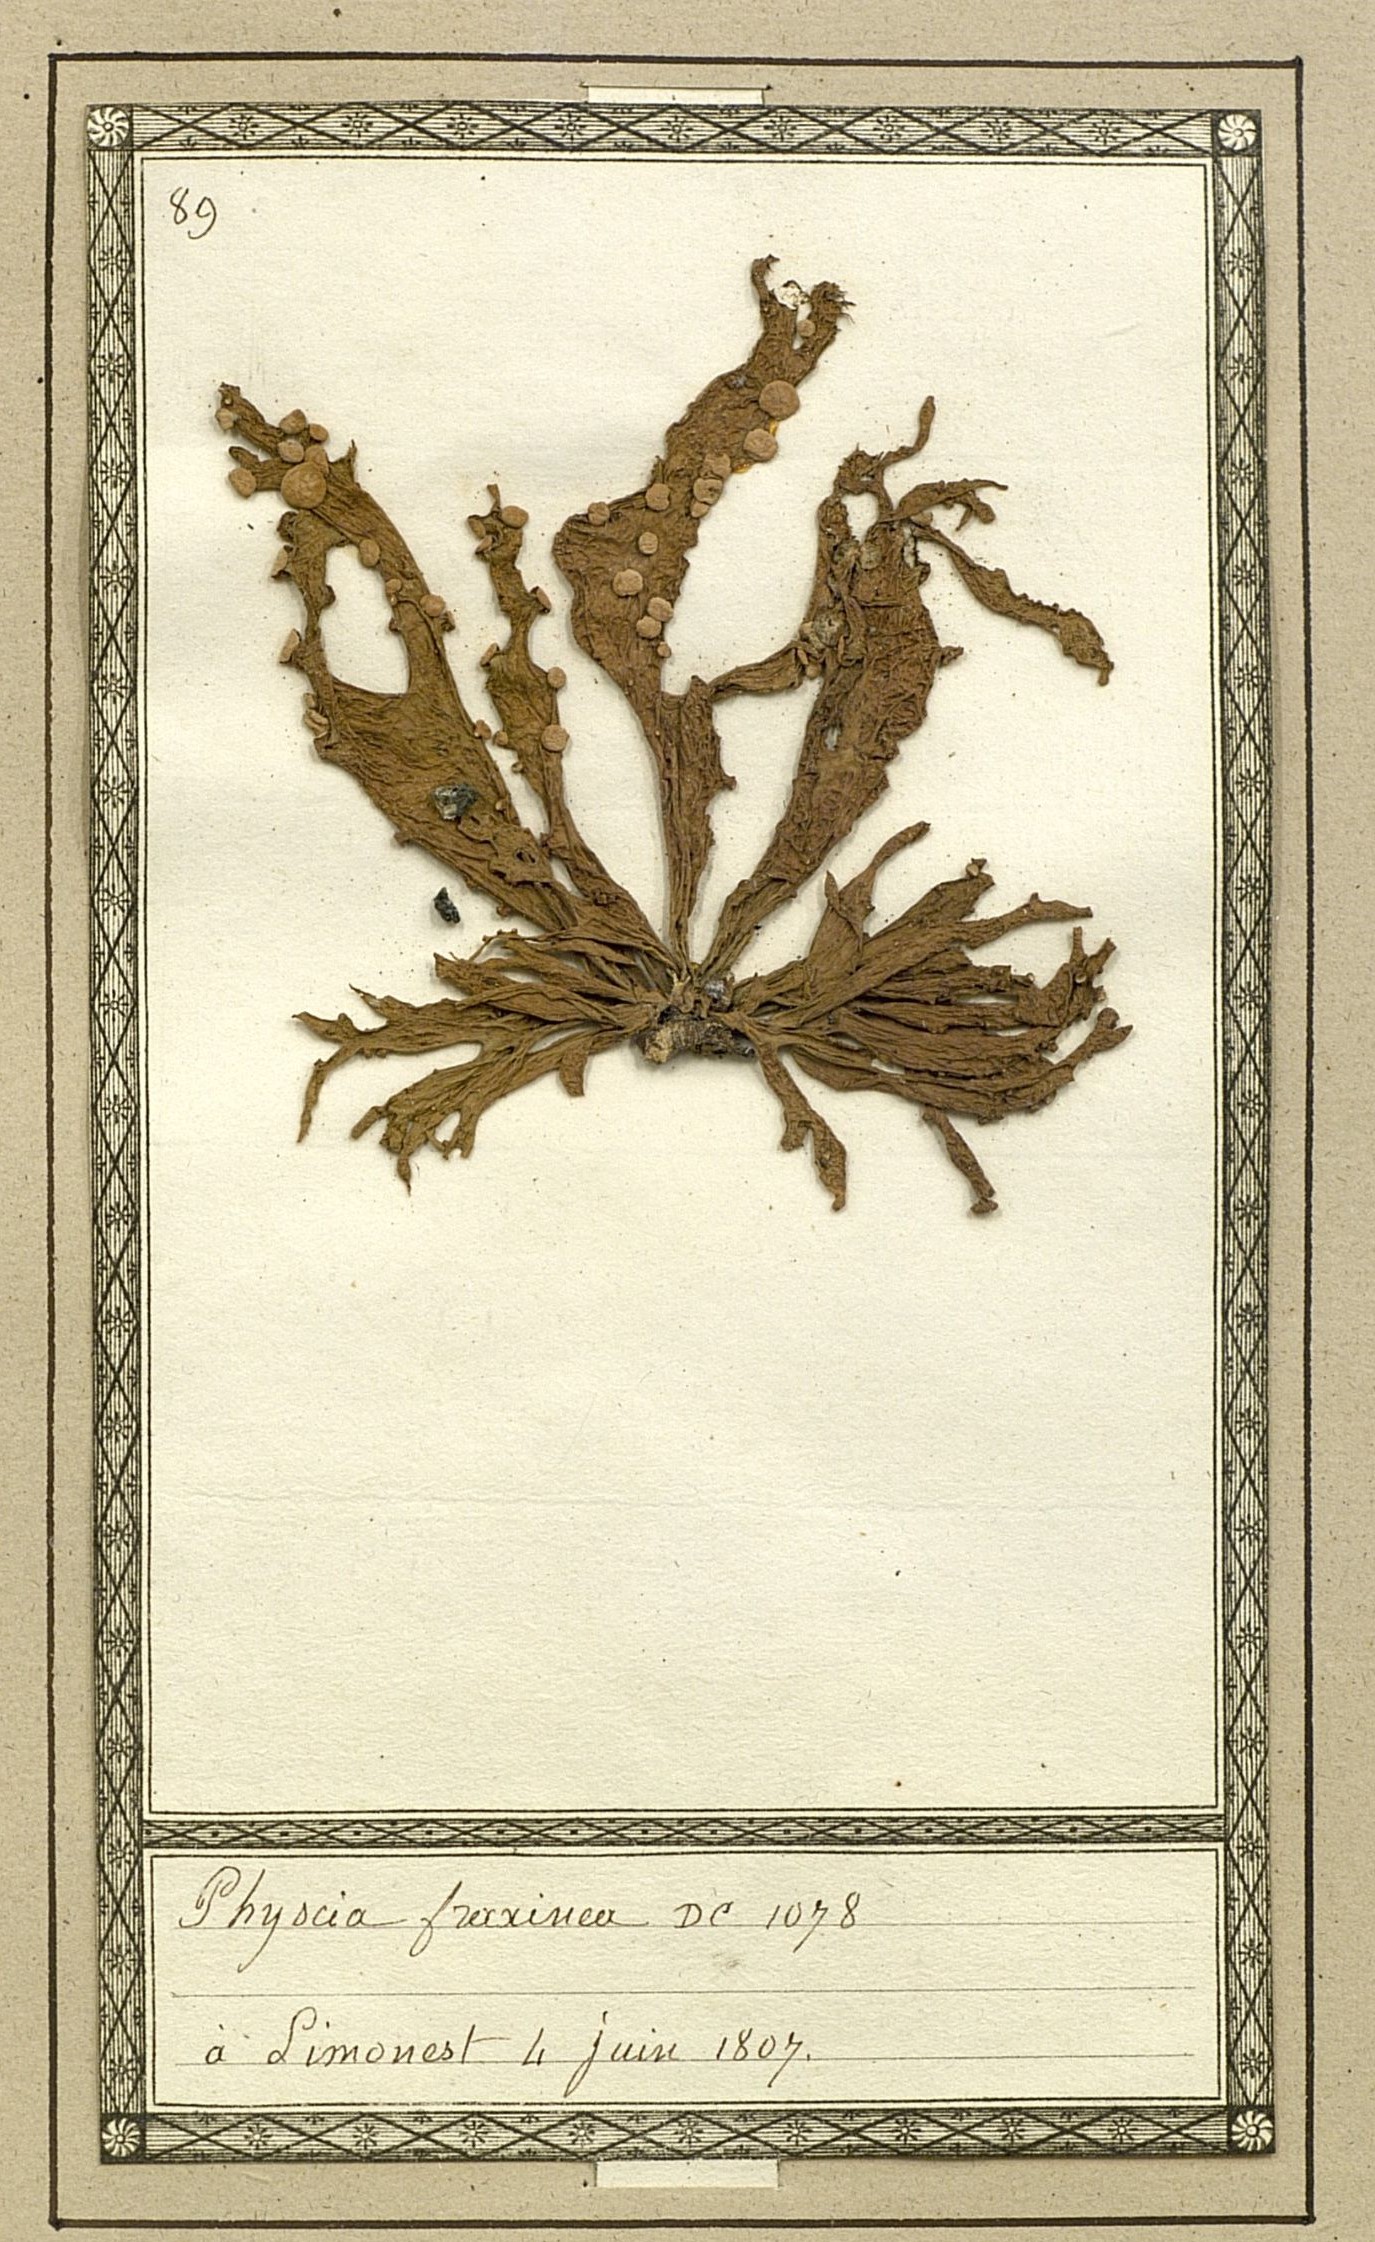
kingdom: Fungi
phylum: Ascomycota
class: Lecanoromycetes
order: Lecanorales
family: Ramalinaceae
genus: Ramalina
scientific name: Ramalina fraxinea
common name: Cartilage lichen
